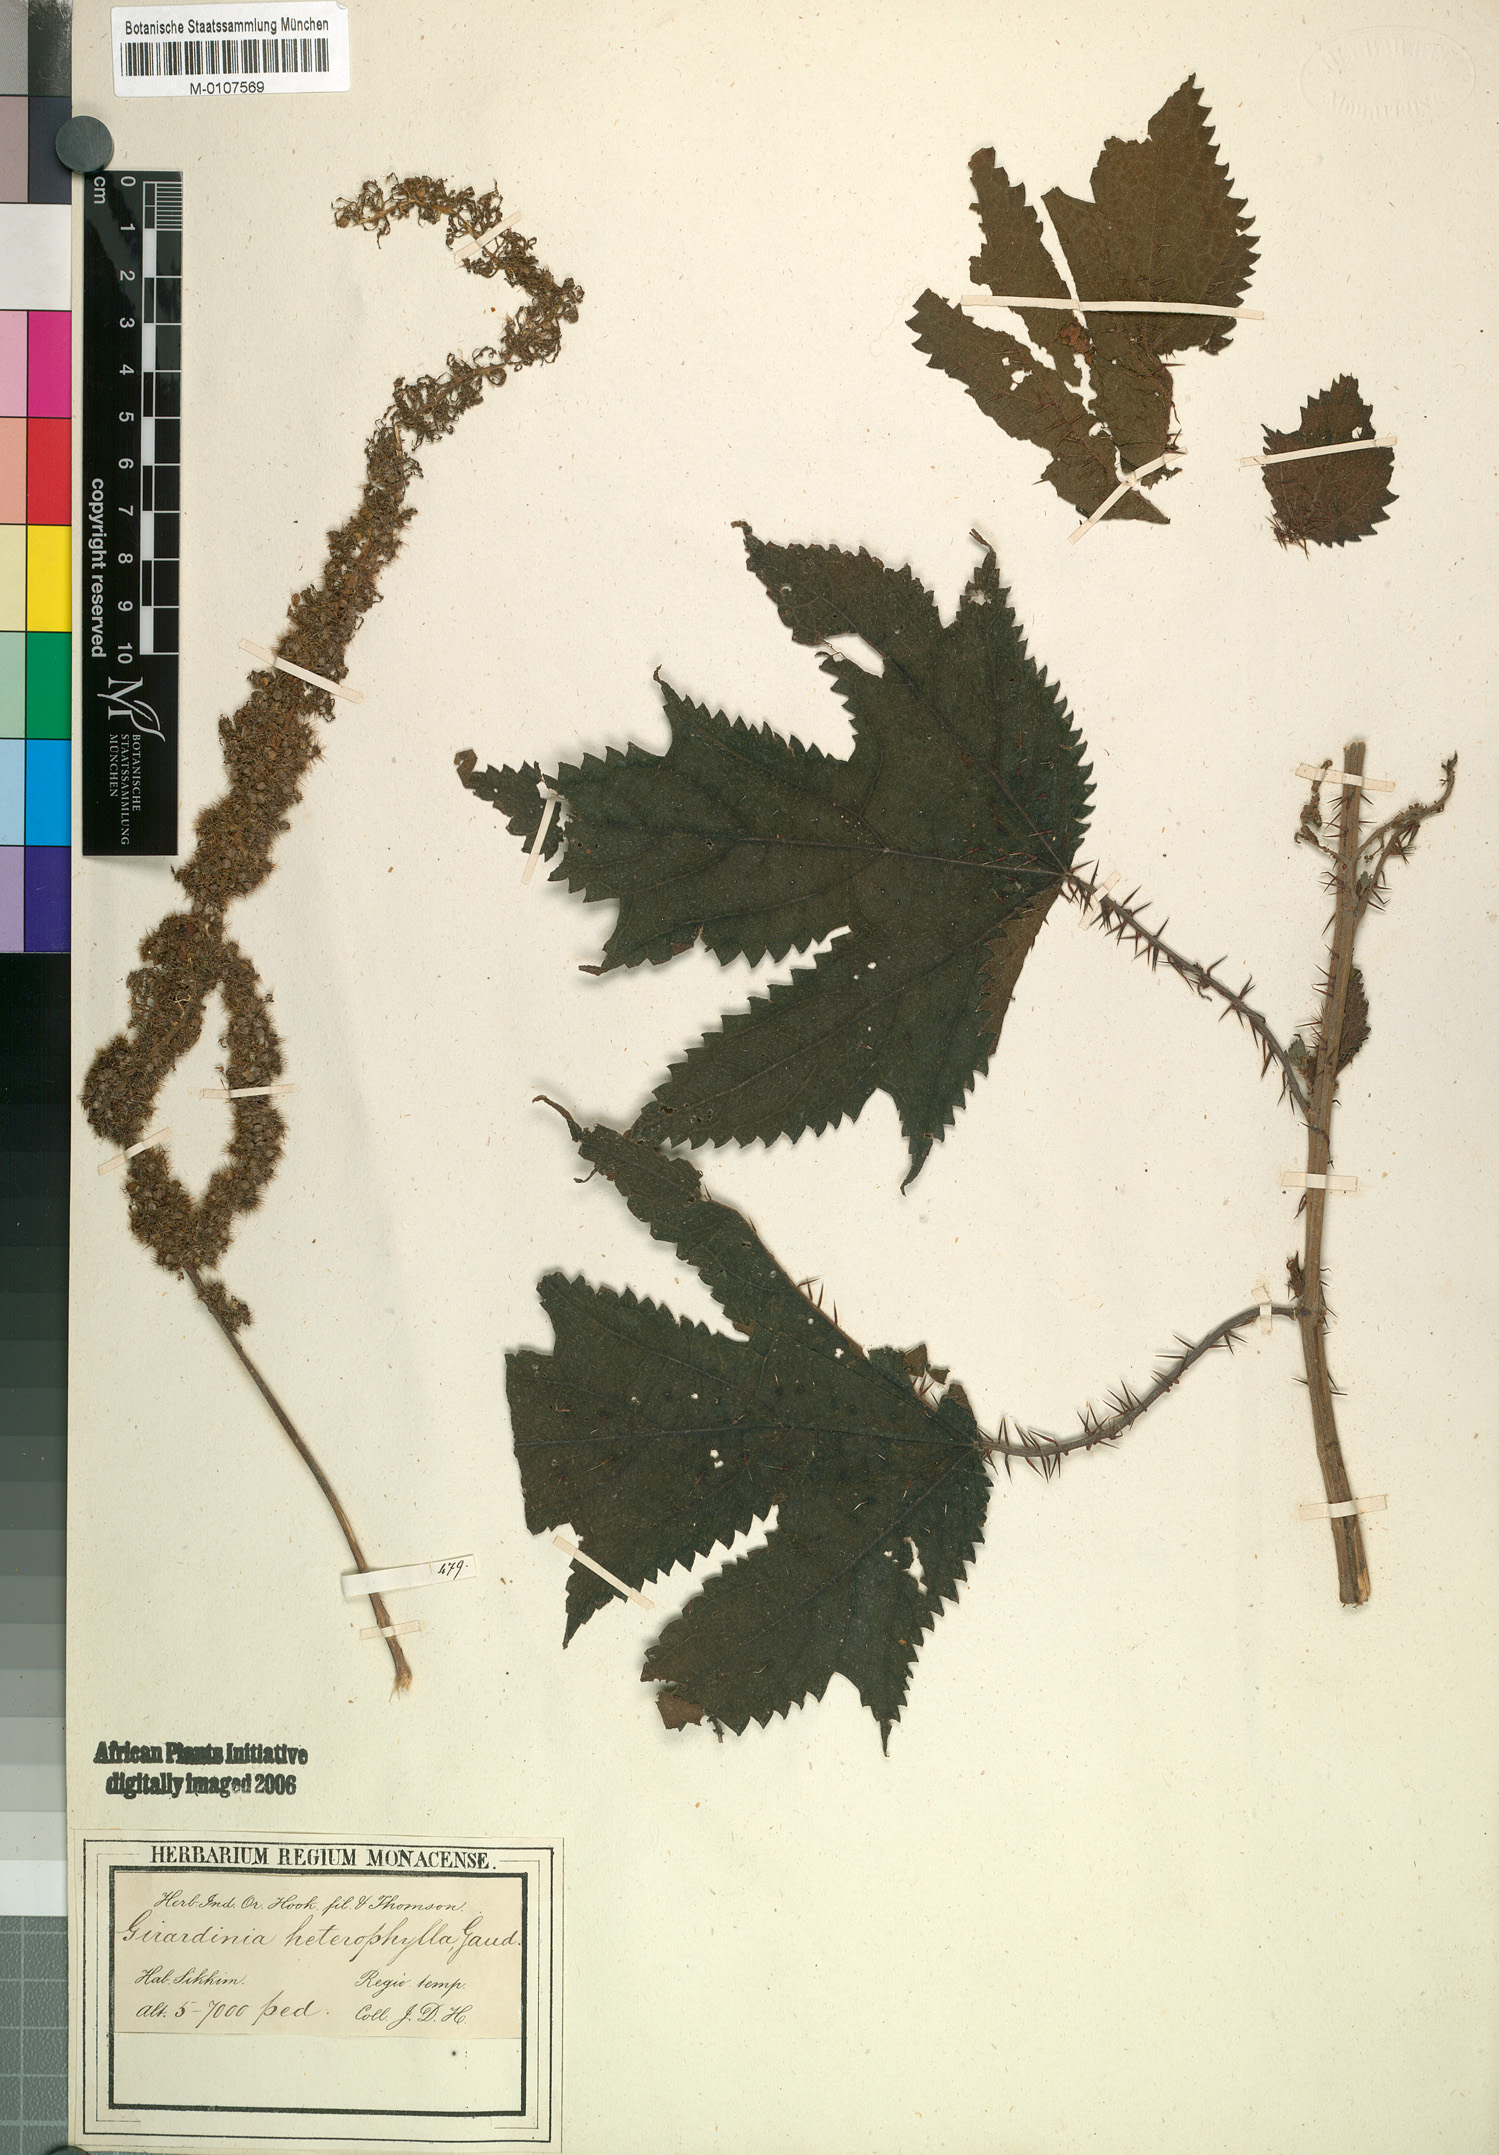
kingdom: Plantae
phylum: Tracheophyta
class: Magnoliopsida
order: Rosales
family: Urticaceae
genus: Girardinia
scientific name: Girardinia diversifolia
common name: Himalayan-nettle
